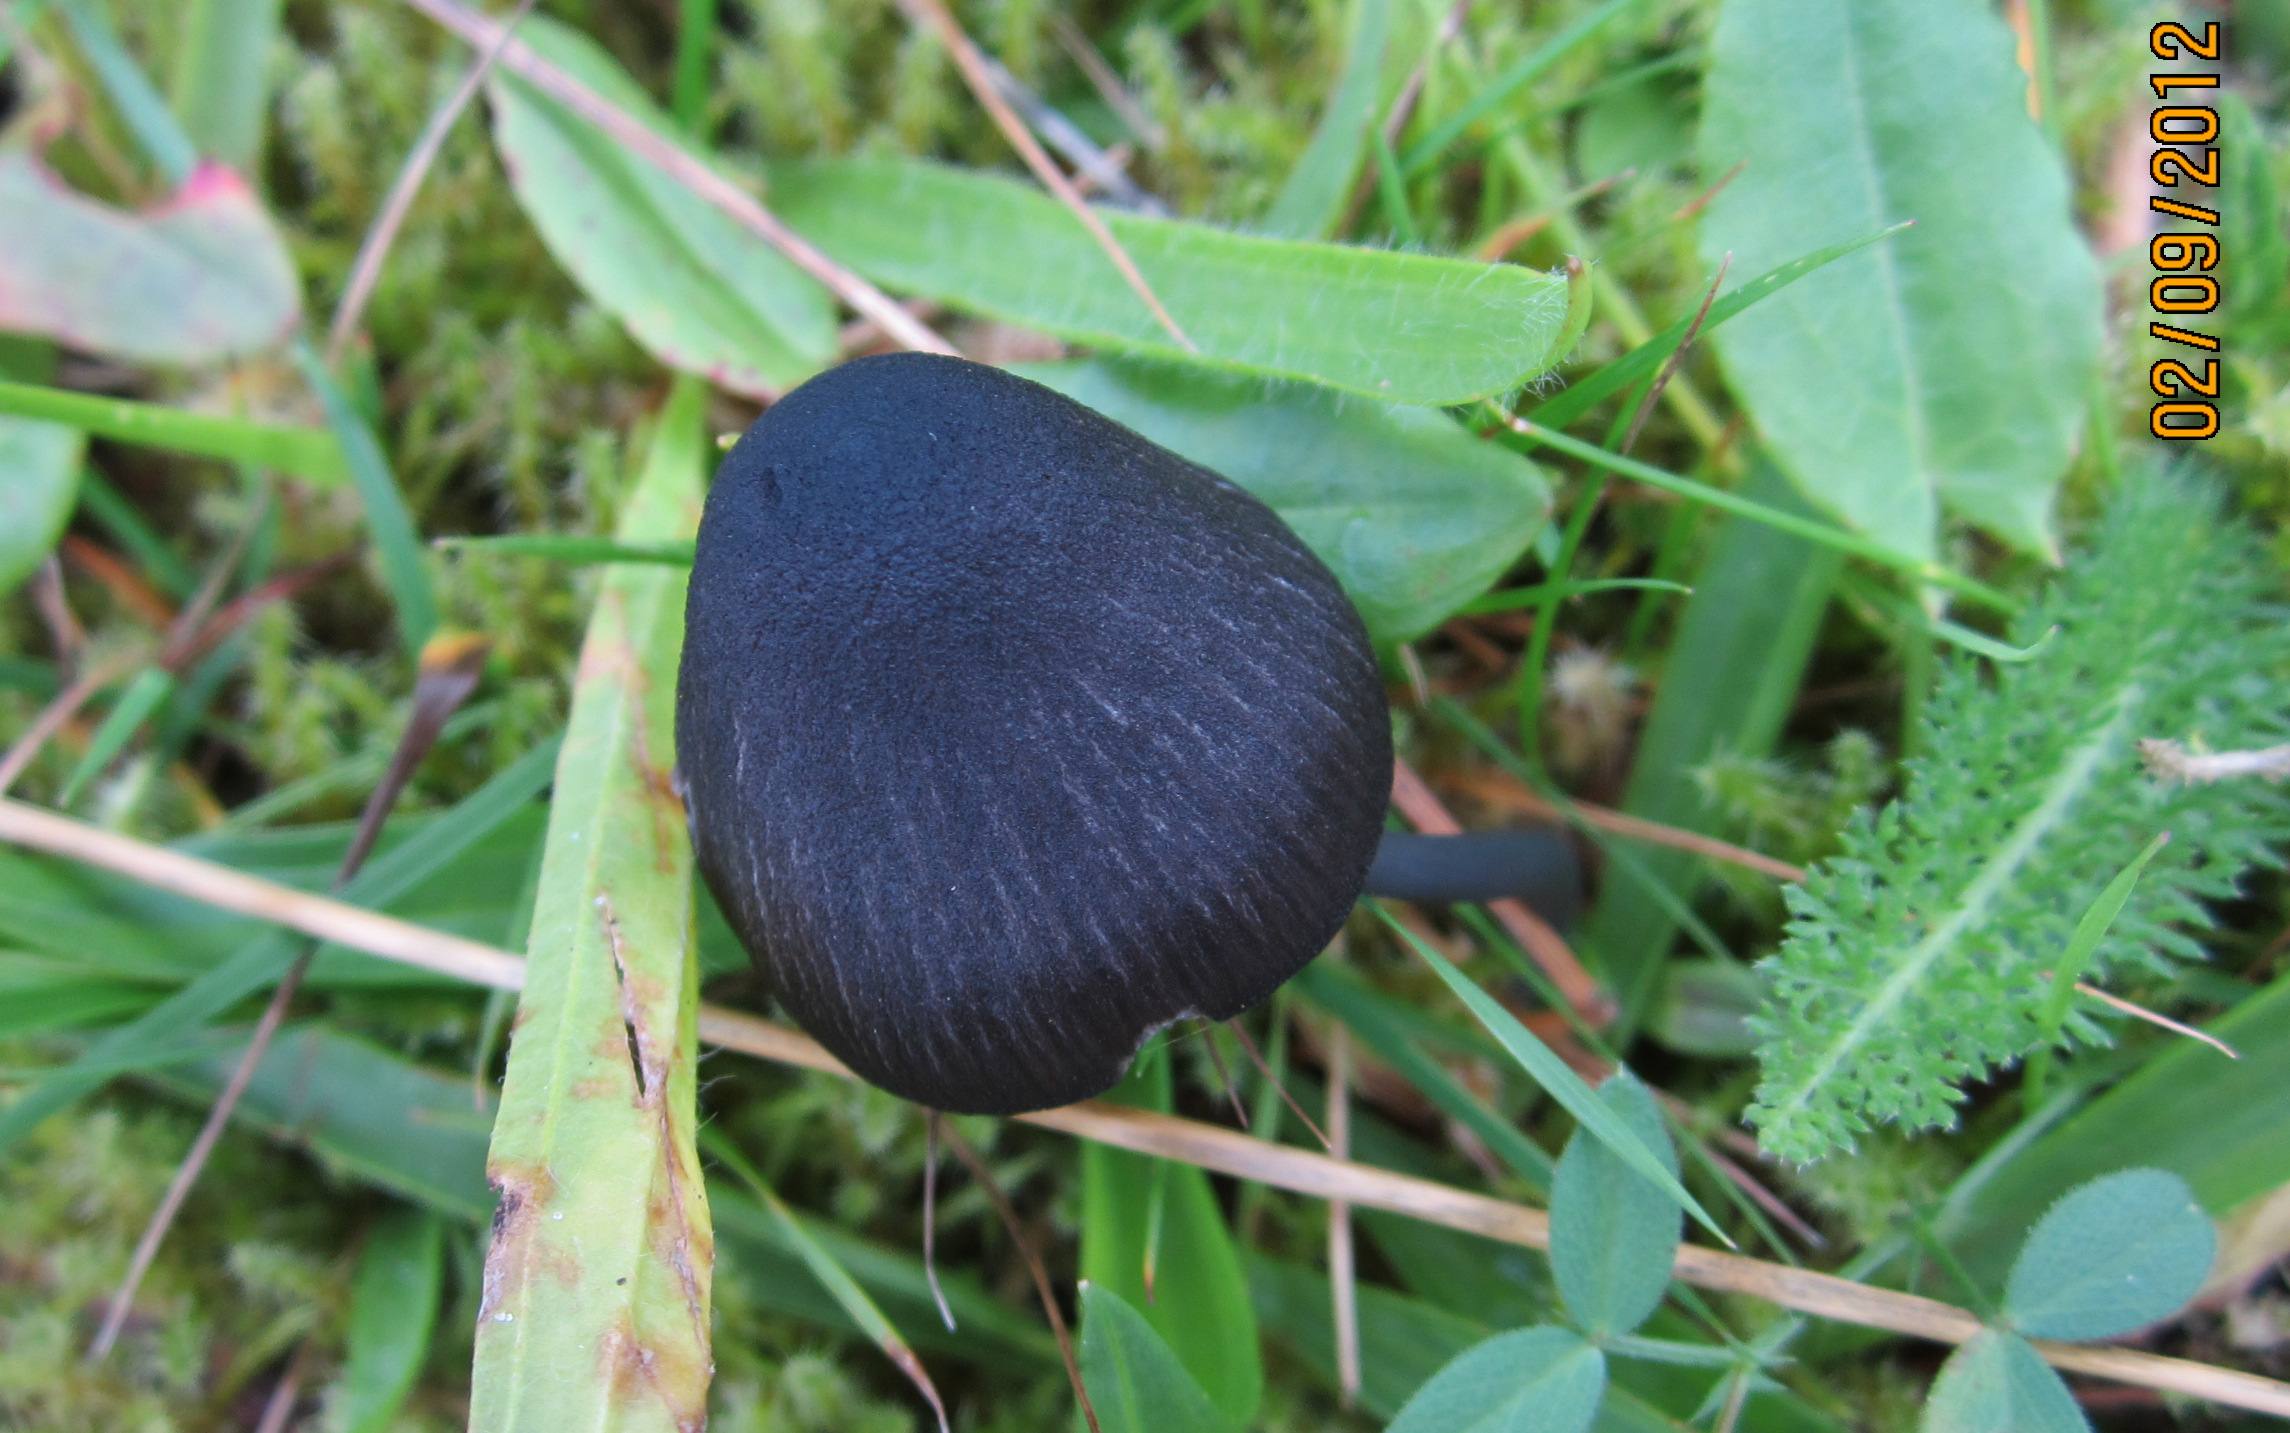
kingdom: Fungi
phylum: Basidiomycota
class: Agaricomycetes
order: Agaricales
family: Entolomataceae
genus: Entoloma
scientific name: Entoloma chalybeum
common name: blåbladet rødblad
